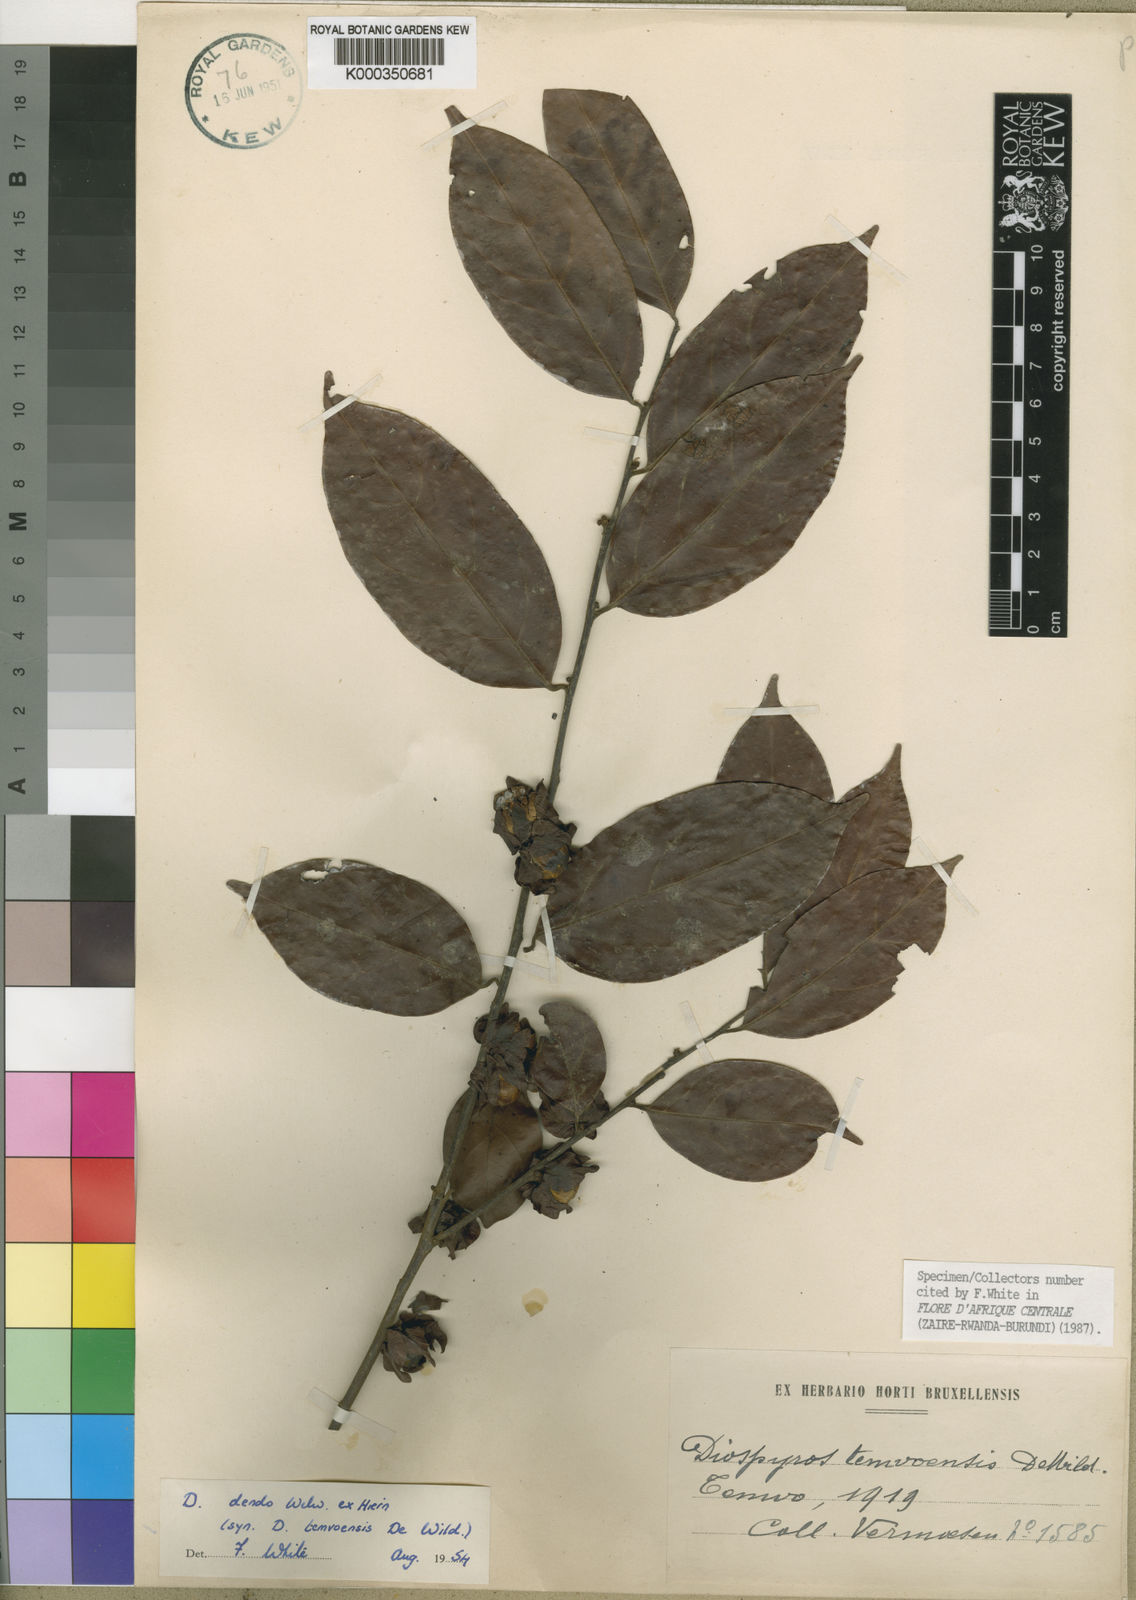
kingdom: Plantae
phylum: Tracheophyta
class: Magnoliopsida
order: Ericales
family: Ebenaceae
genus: Diospyros
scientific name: Diospyros dendo
